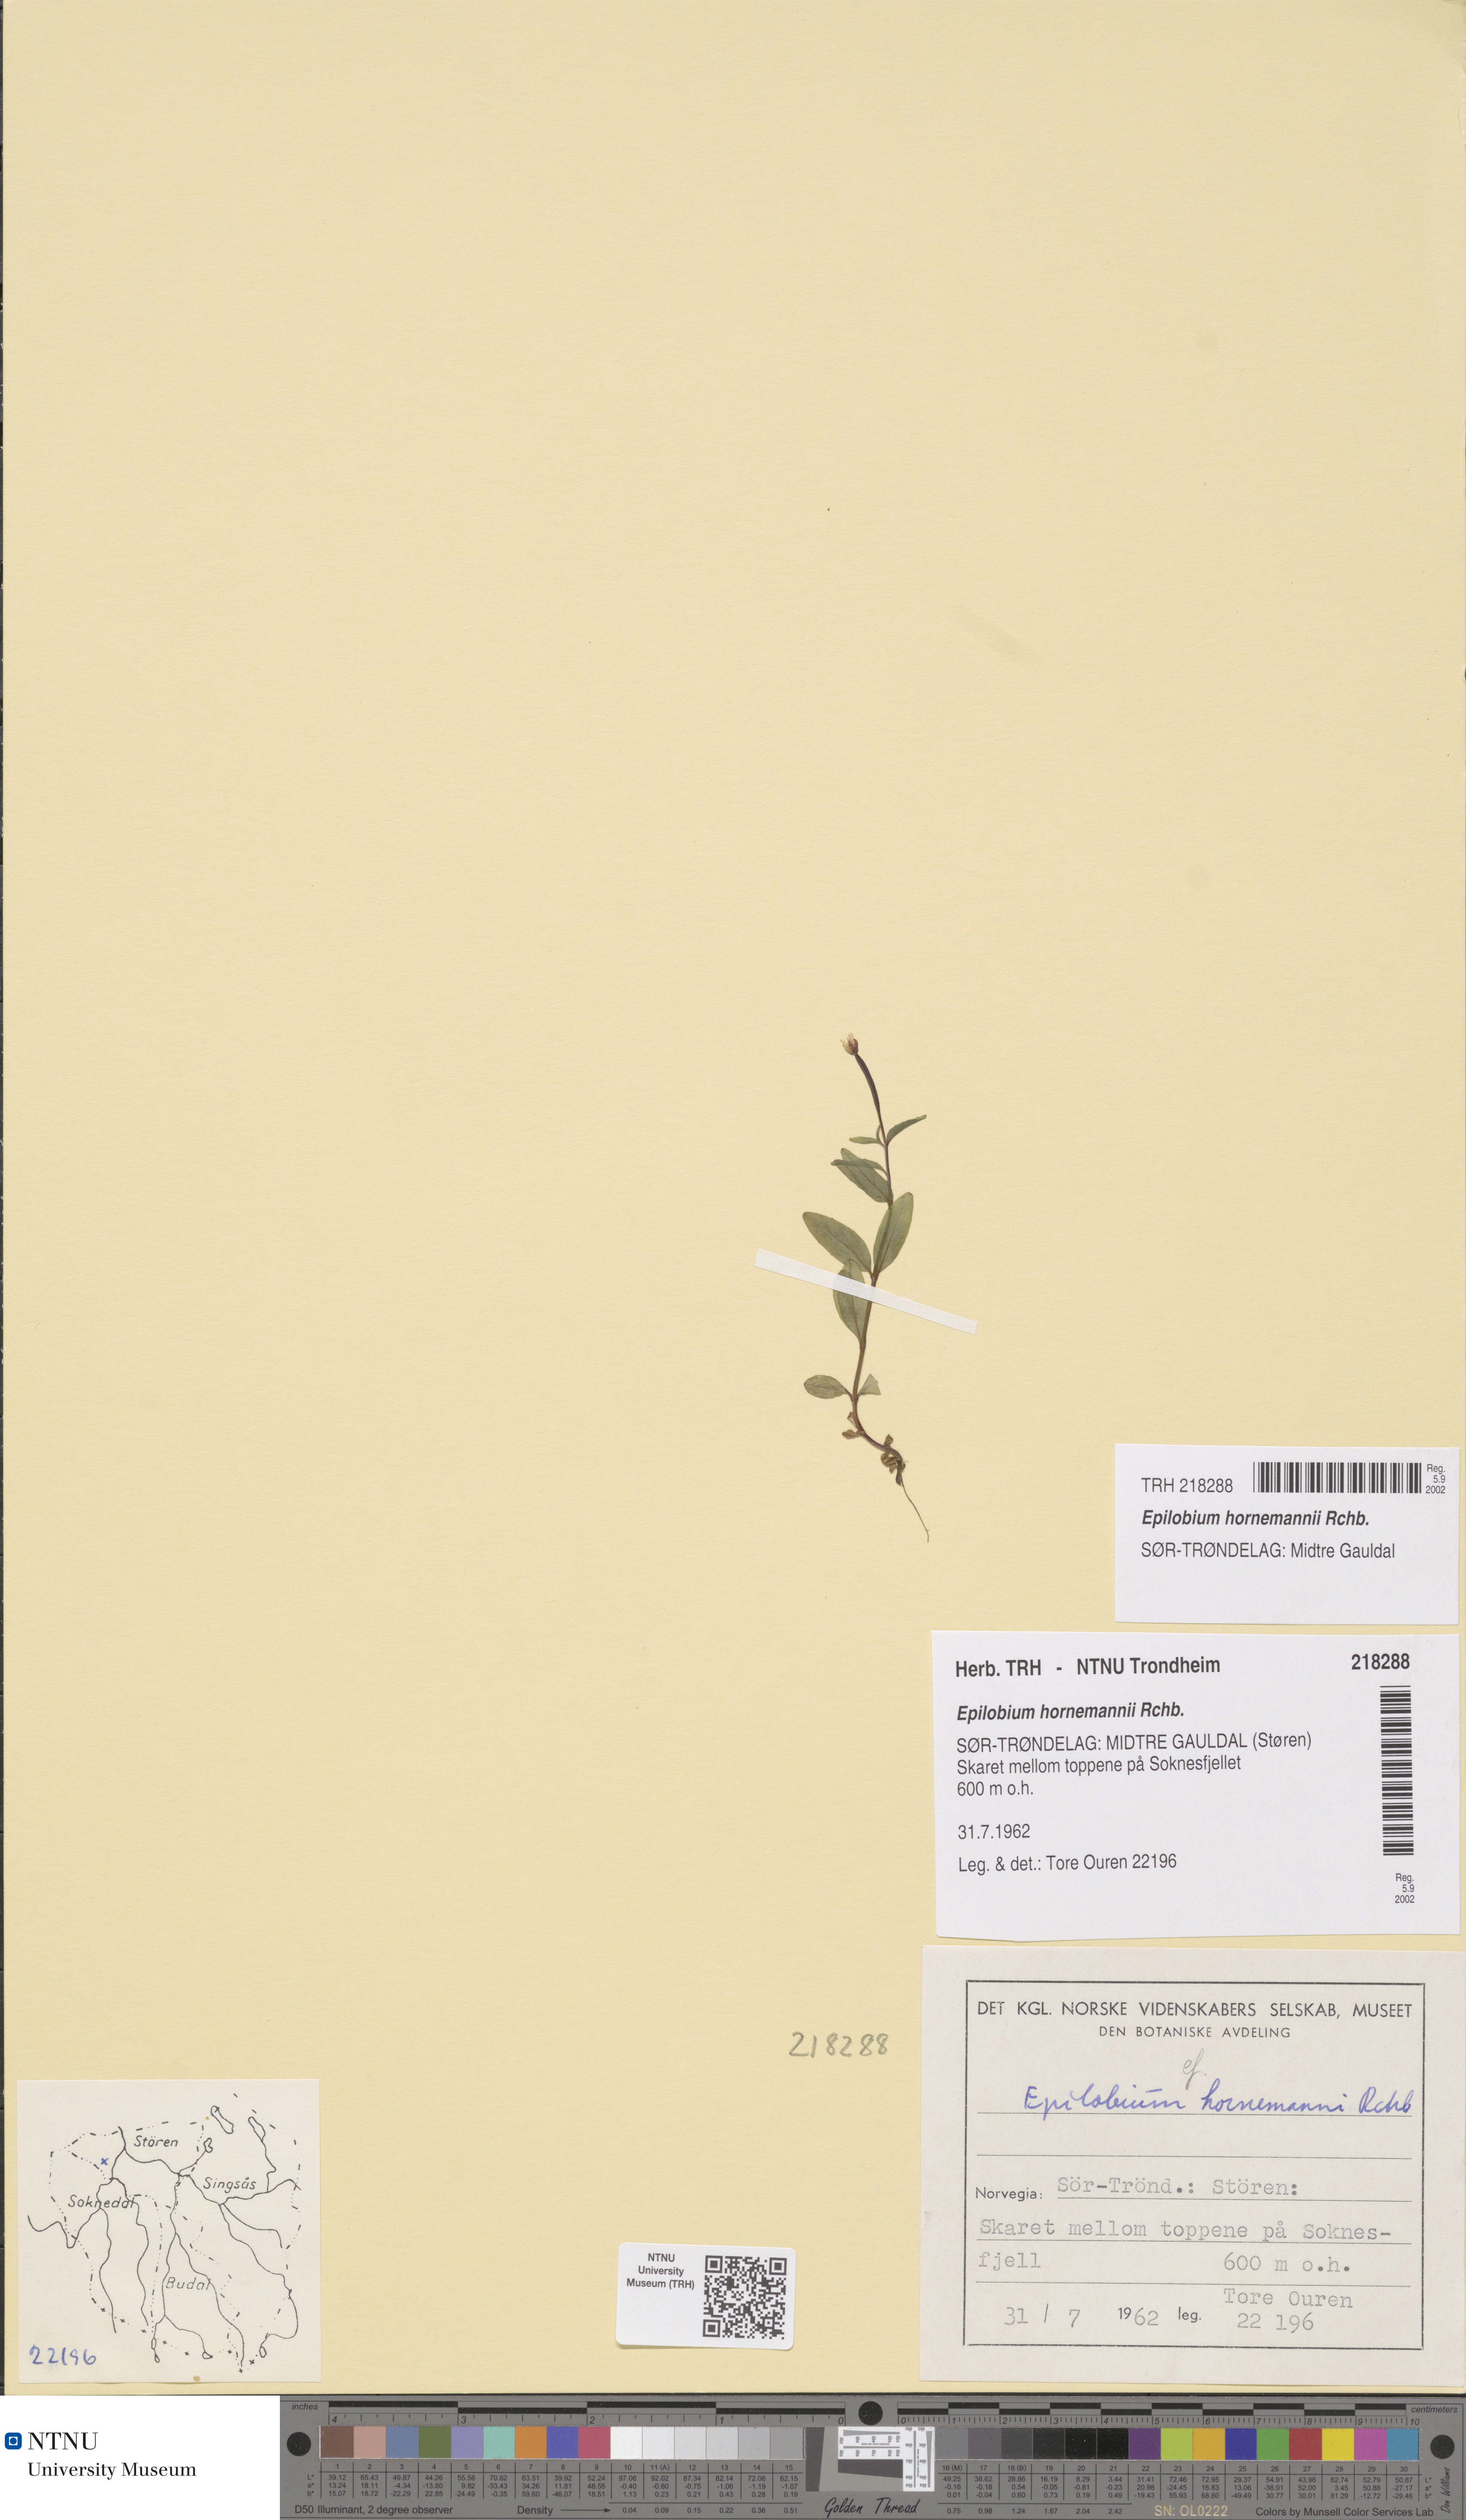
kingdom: Plantae
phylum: Tracheophyta
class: Magnoliopsida
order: Myrtales
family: Onagraceae
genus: Epilobium
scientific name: Epilobium hornemannii
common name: Hornemann's willowherb
